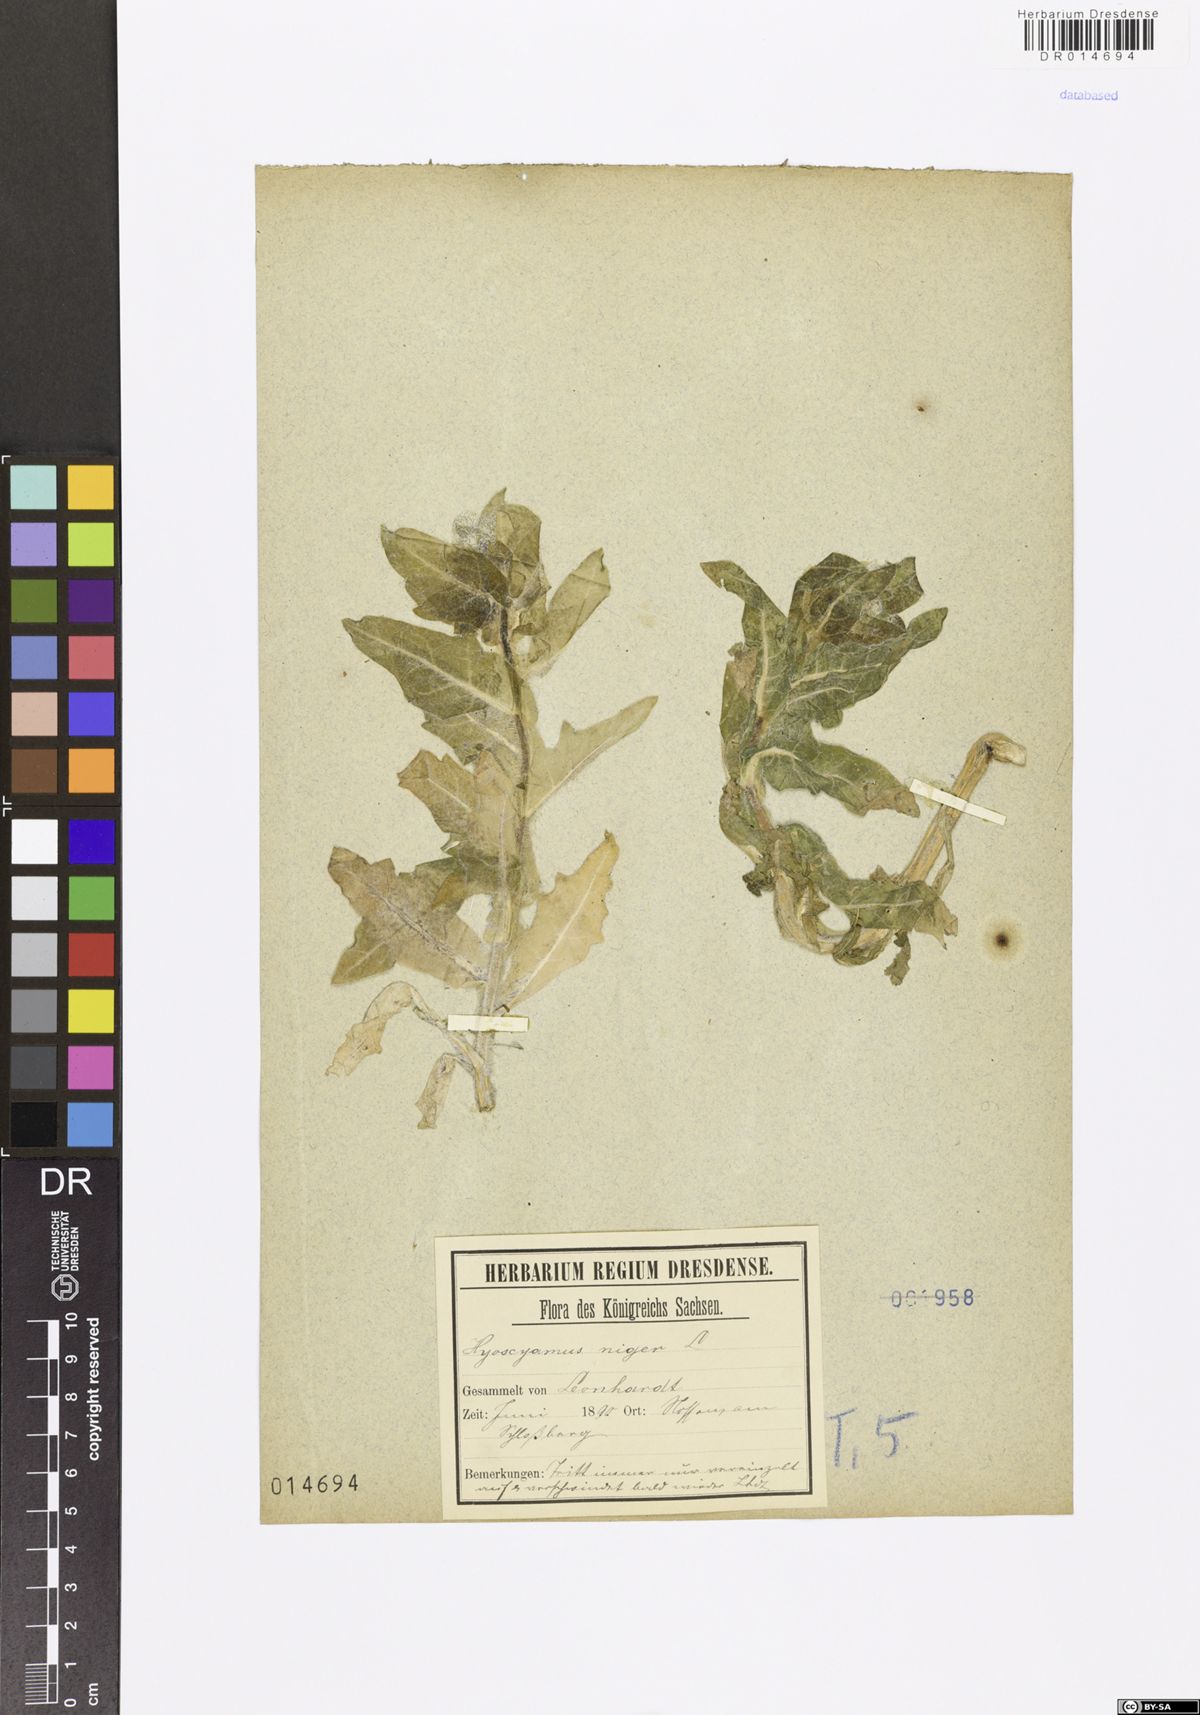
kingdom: Plantae
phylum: Tracheophyta
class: Magnoliopsida
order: Solanales
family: Solanaceae
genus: Hyoscyamus
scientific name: Hyoscyamus niger
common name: Henbane
